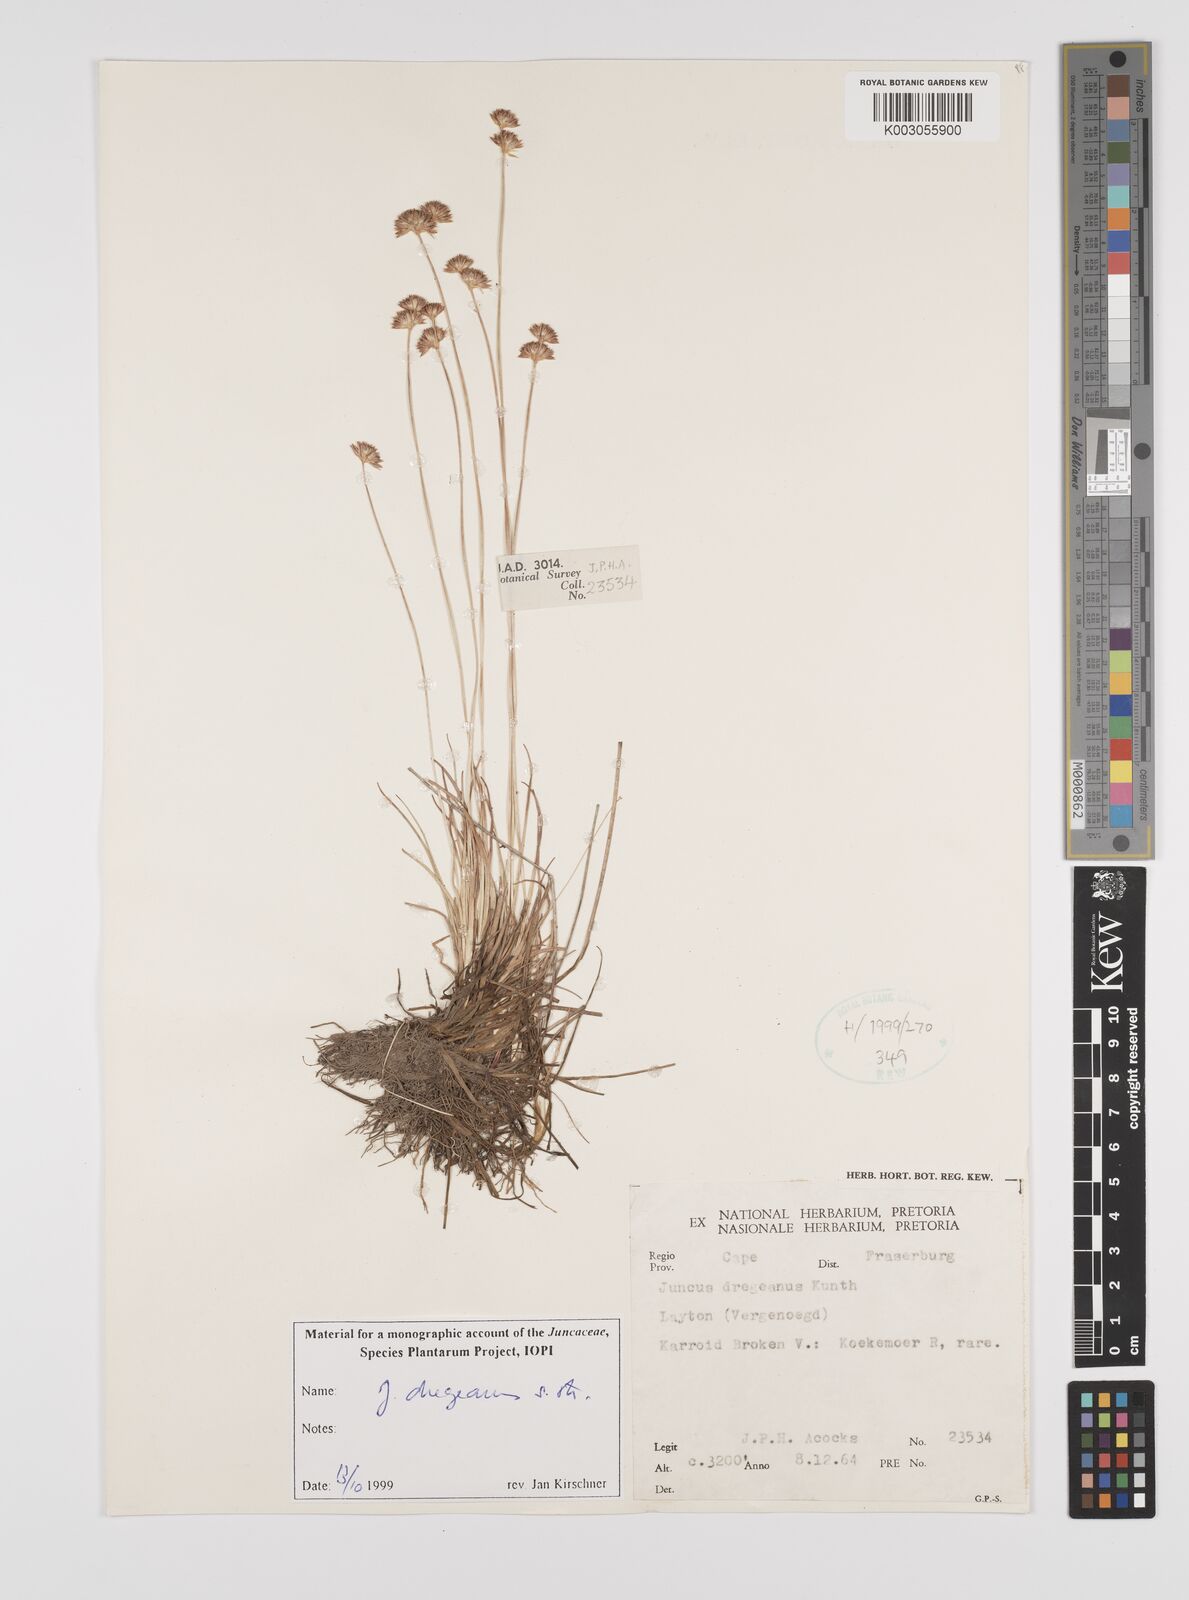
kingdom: Plantae
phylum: Tracheophyta
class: Liliopsida
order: Poales
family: Juncaceae
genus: Juncus
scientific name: Juncus dregeanus
